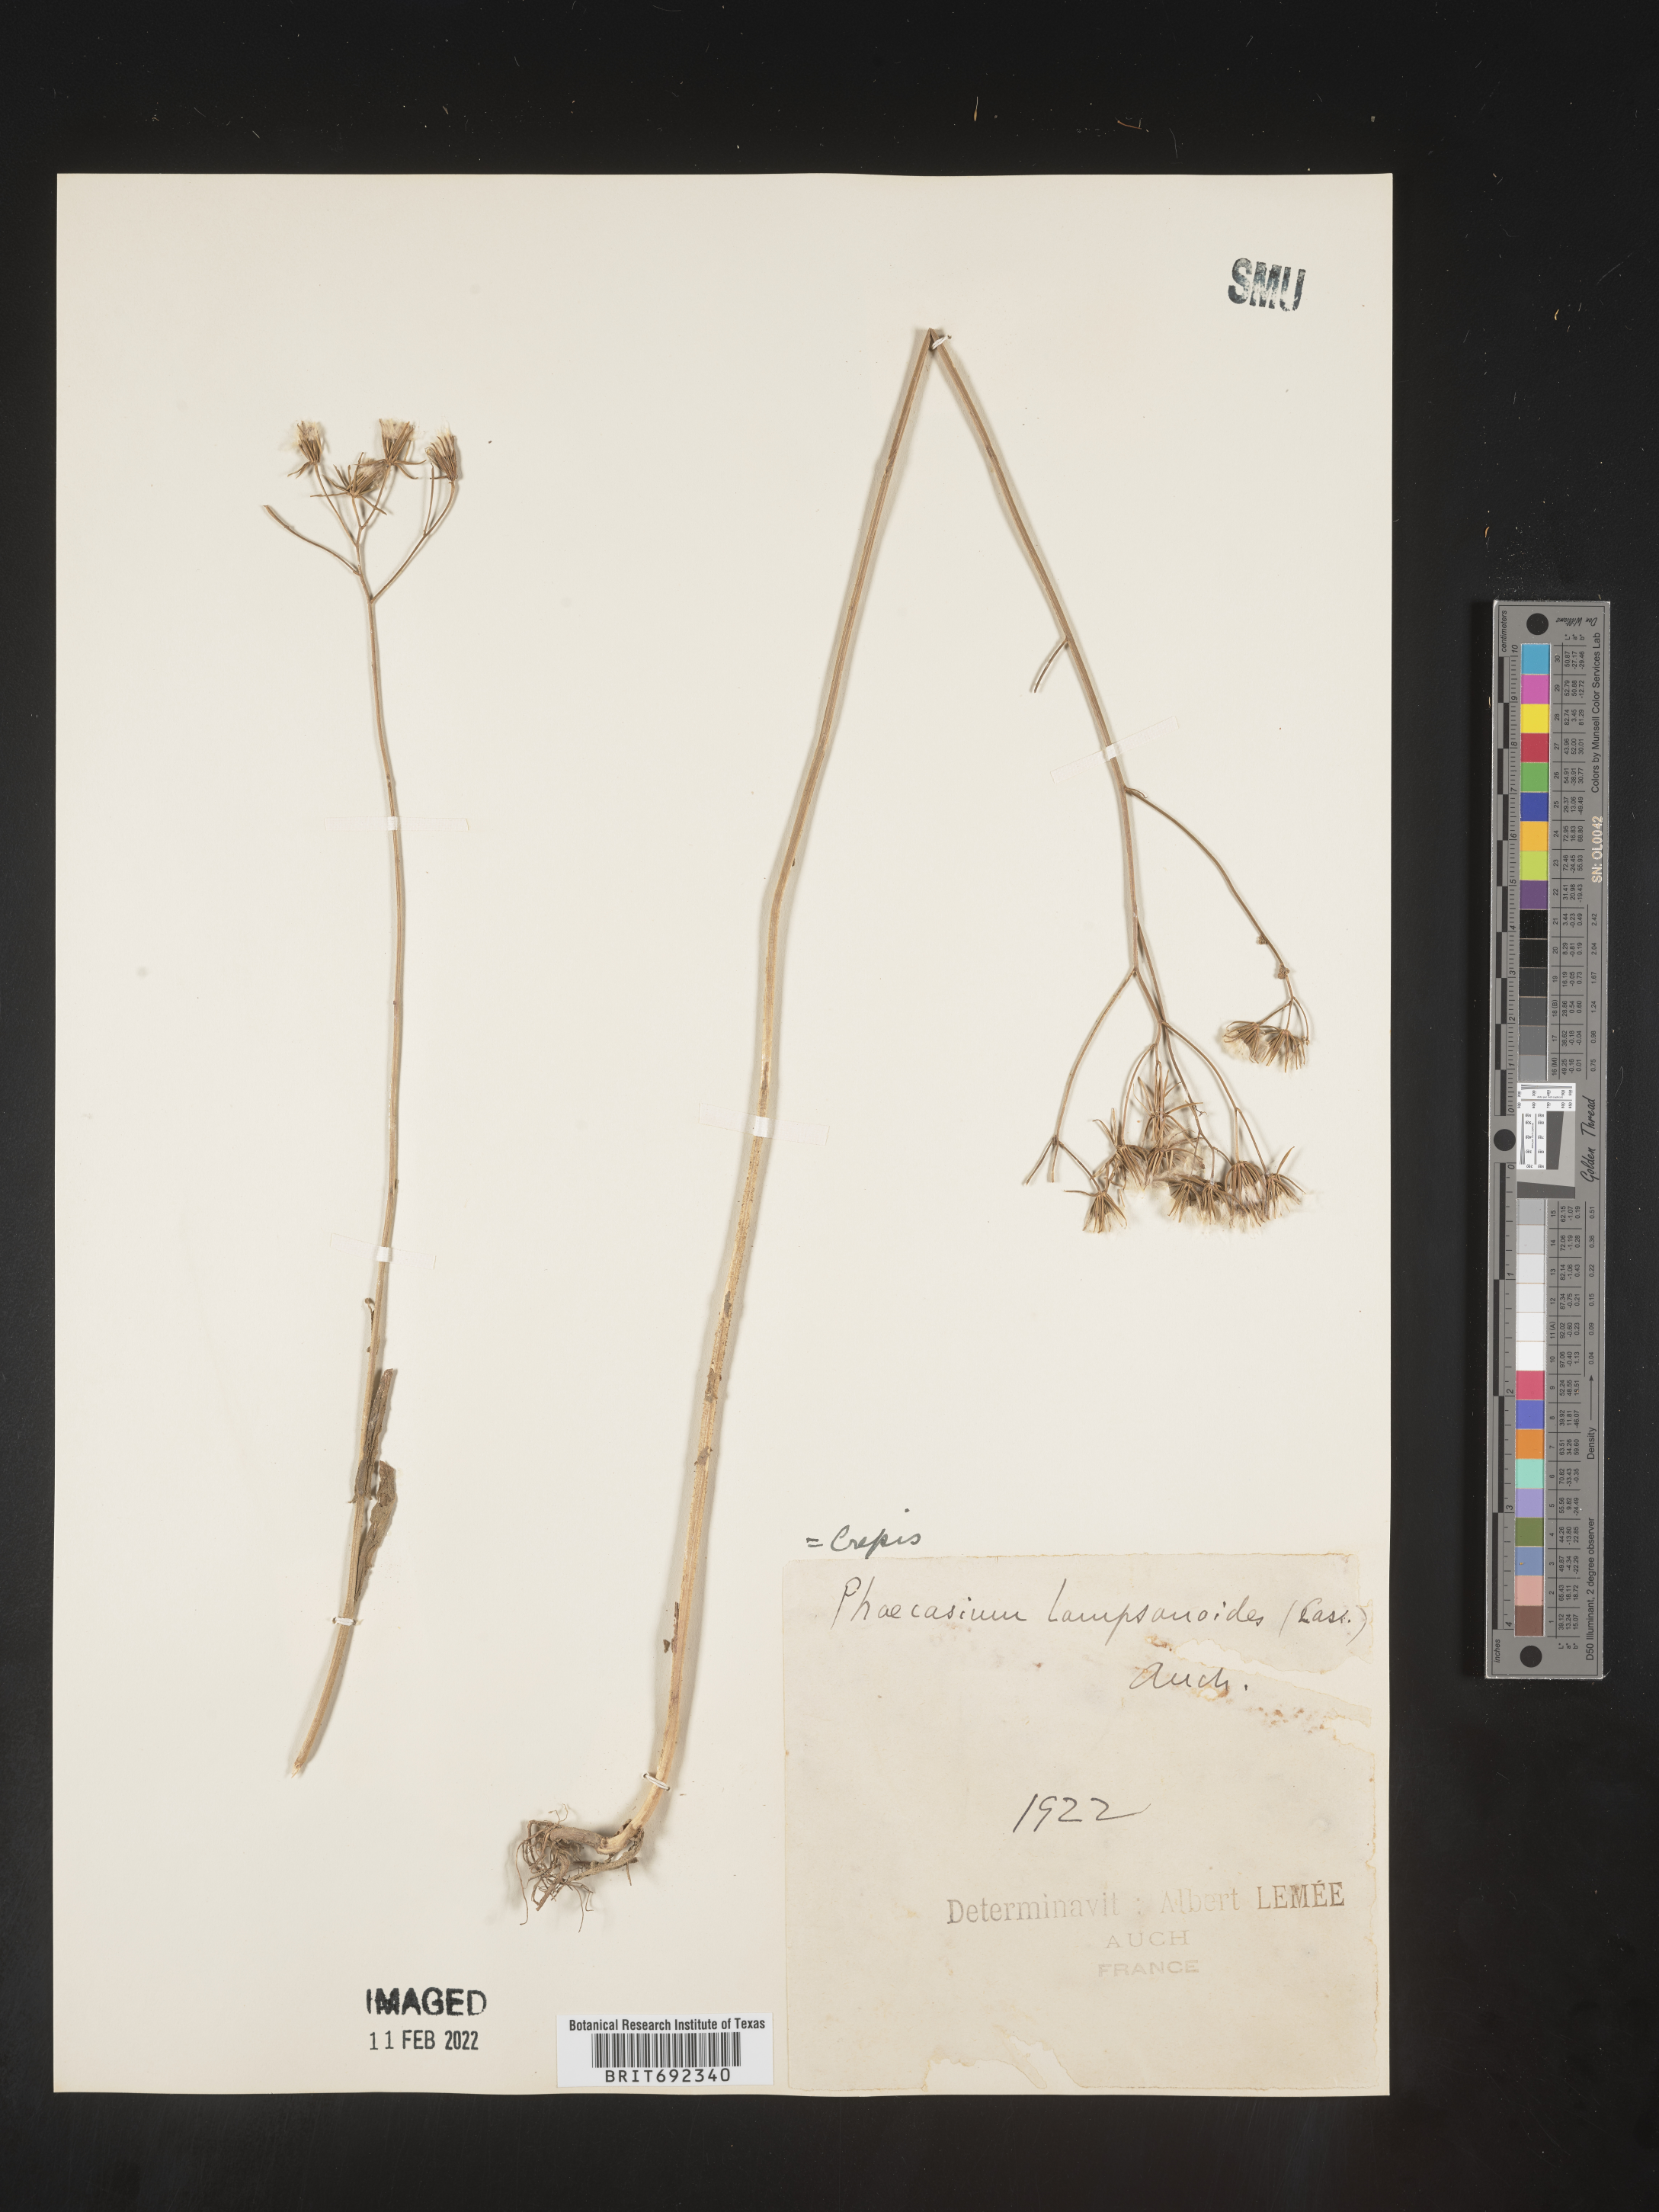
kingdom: Plantae
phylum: Tracheophyta
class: Magnoliopsida
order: Asterales
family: Asteraceae
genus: Crepis
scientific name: Crepis
